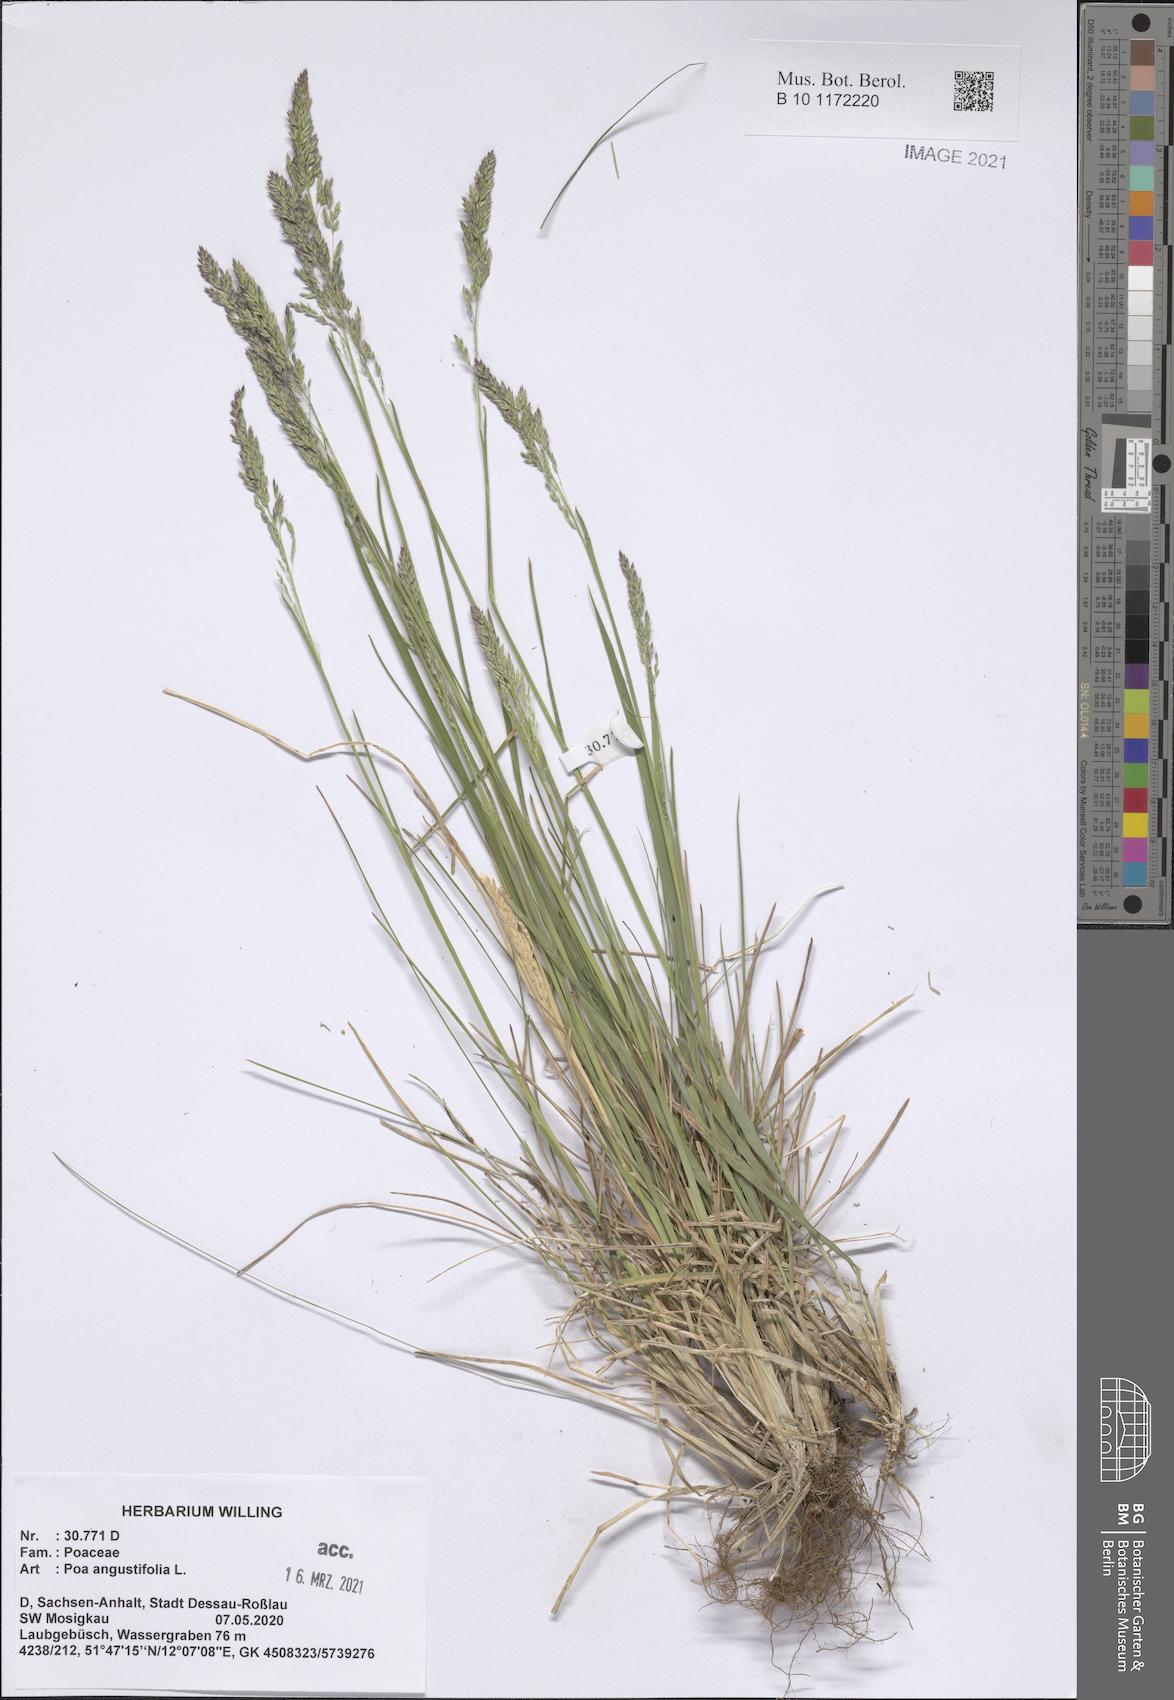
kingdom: Plantae
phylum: Tracheophyta
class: Liliopsida
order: Poales
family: Poaceae
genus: Poa
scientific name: Poa angustifolia
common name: Narrow-leaved meadow-grass
